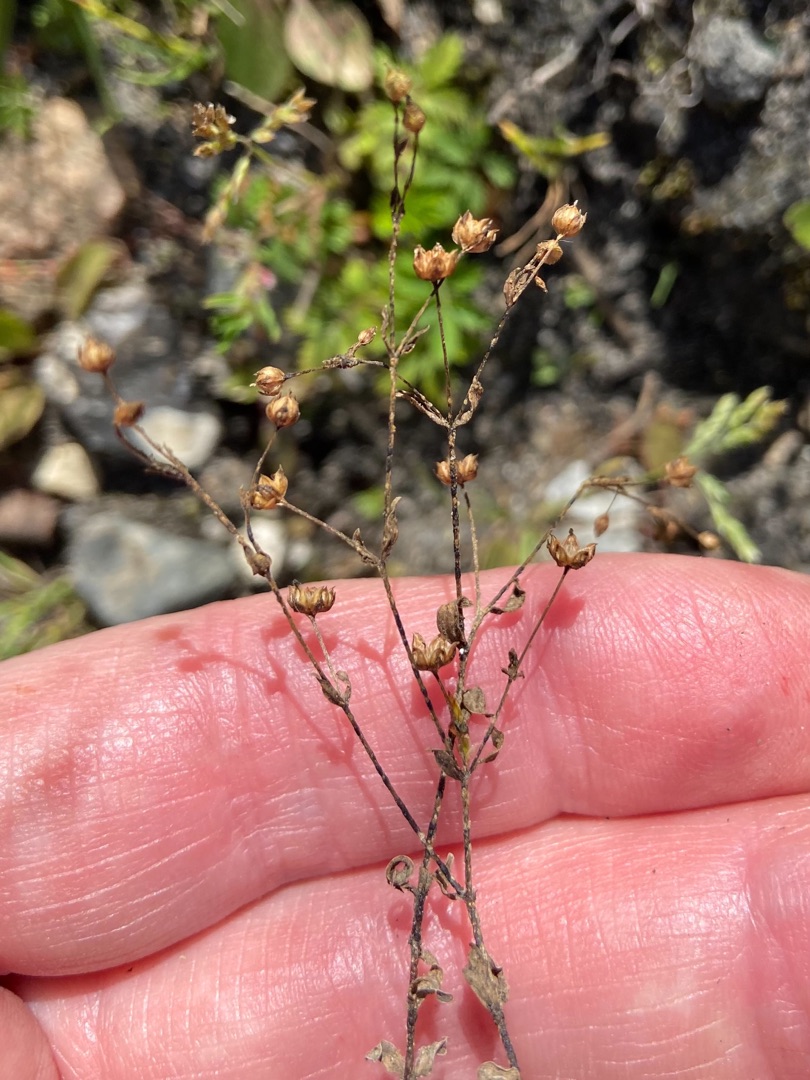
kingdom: Plantae
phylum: Tracheophyta
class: Magnoliopsida
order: Malpighiales
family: Linaceae
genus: Linum
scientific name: Linum catharticum
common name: Vild hør
